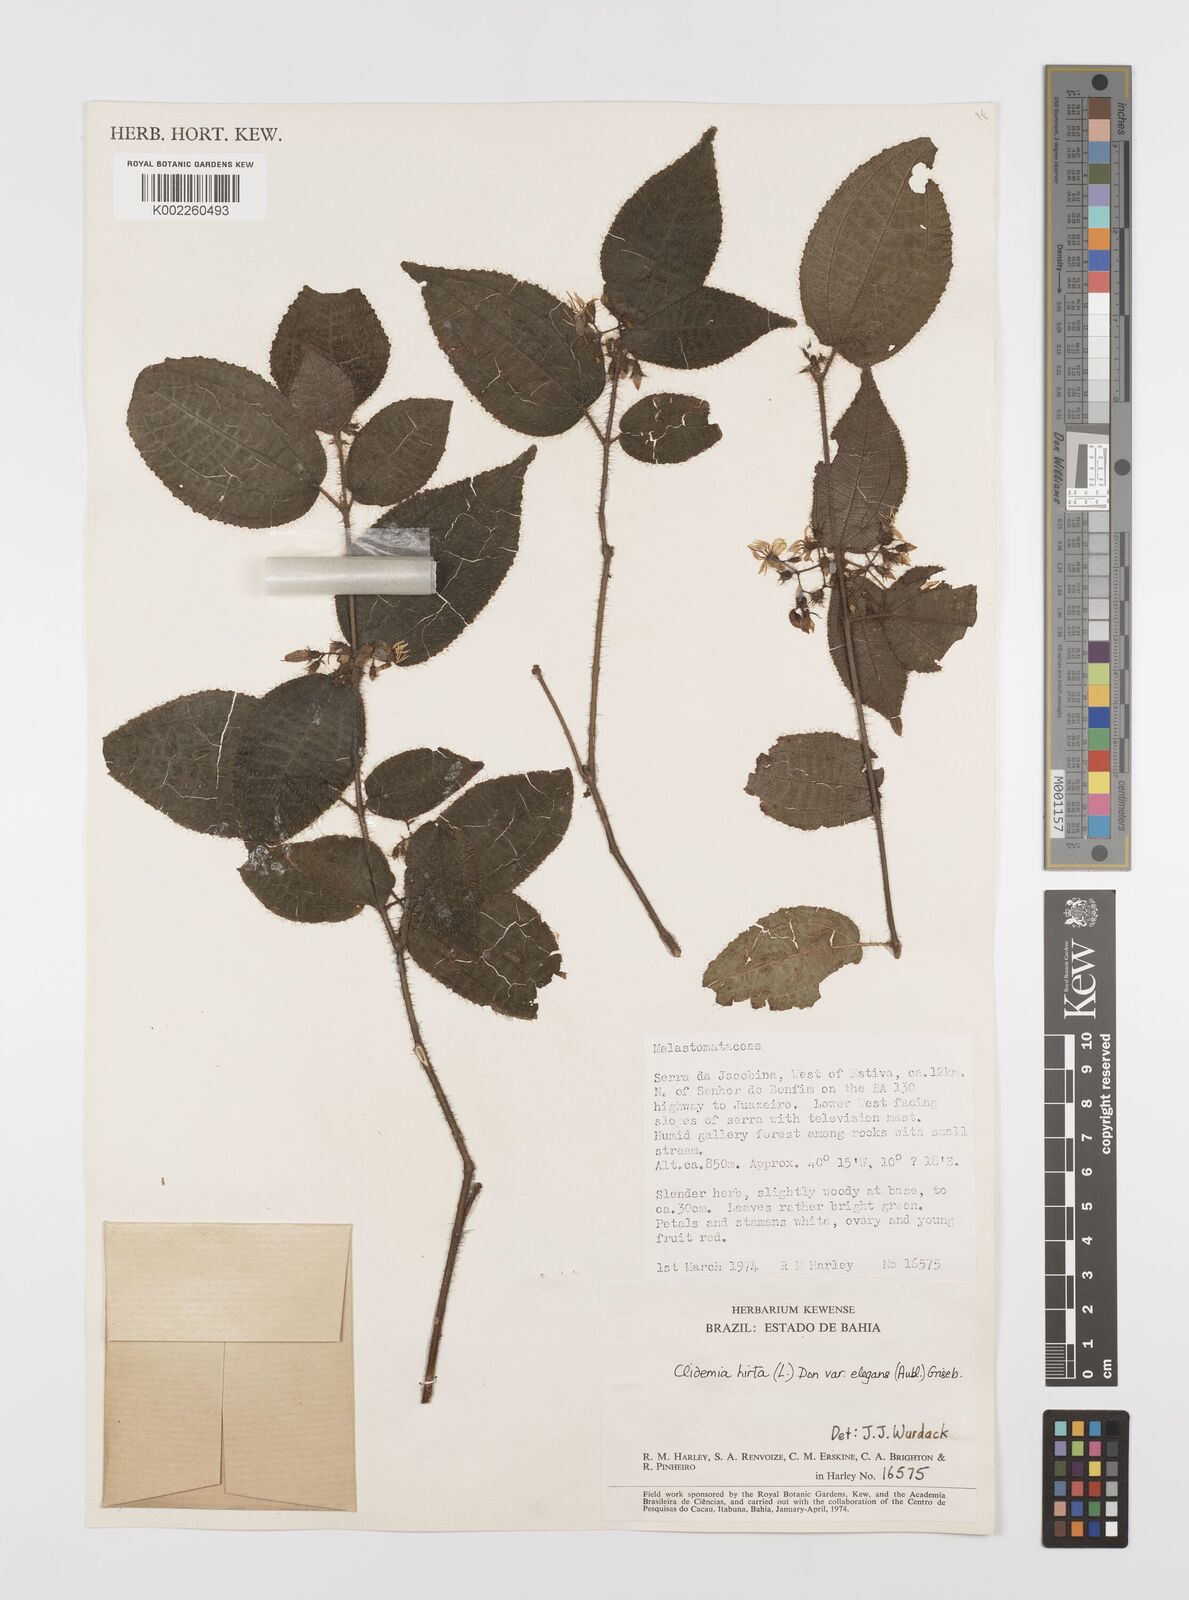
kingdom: Plantae
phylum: Tracheophyta
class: Magnoliopsida
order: Myrtales
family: Melastomataceae
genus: Miconia
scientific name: Miconia crenata
